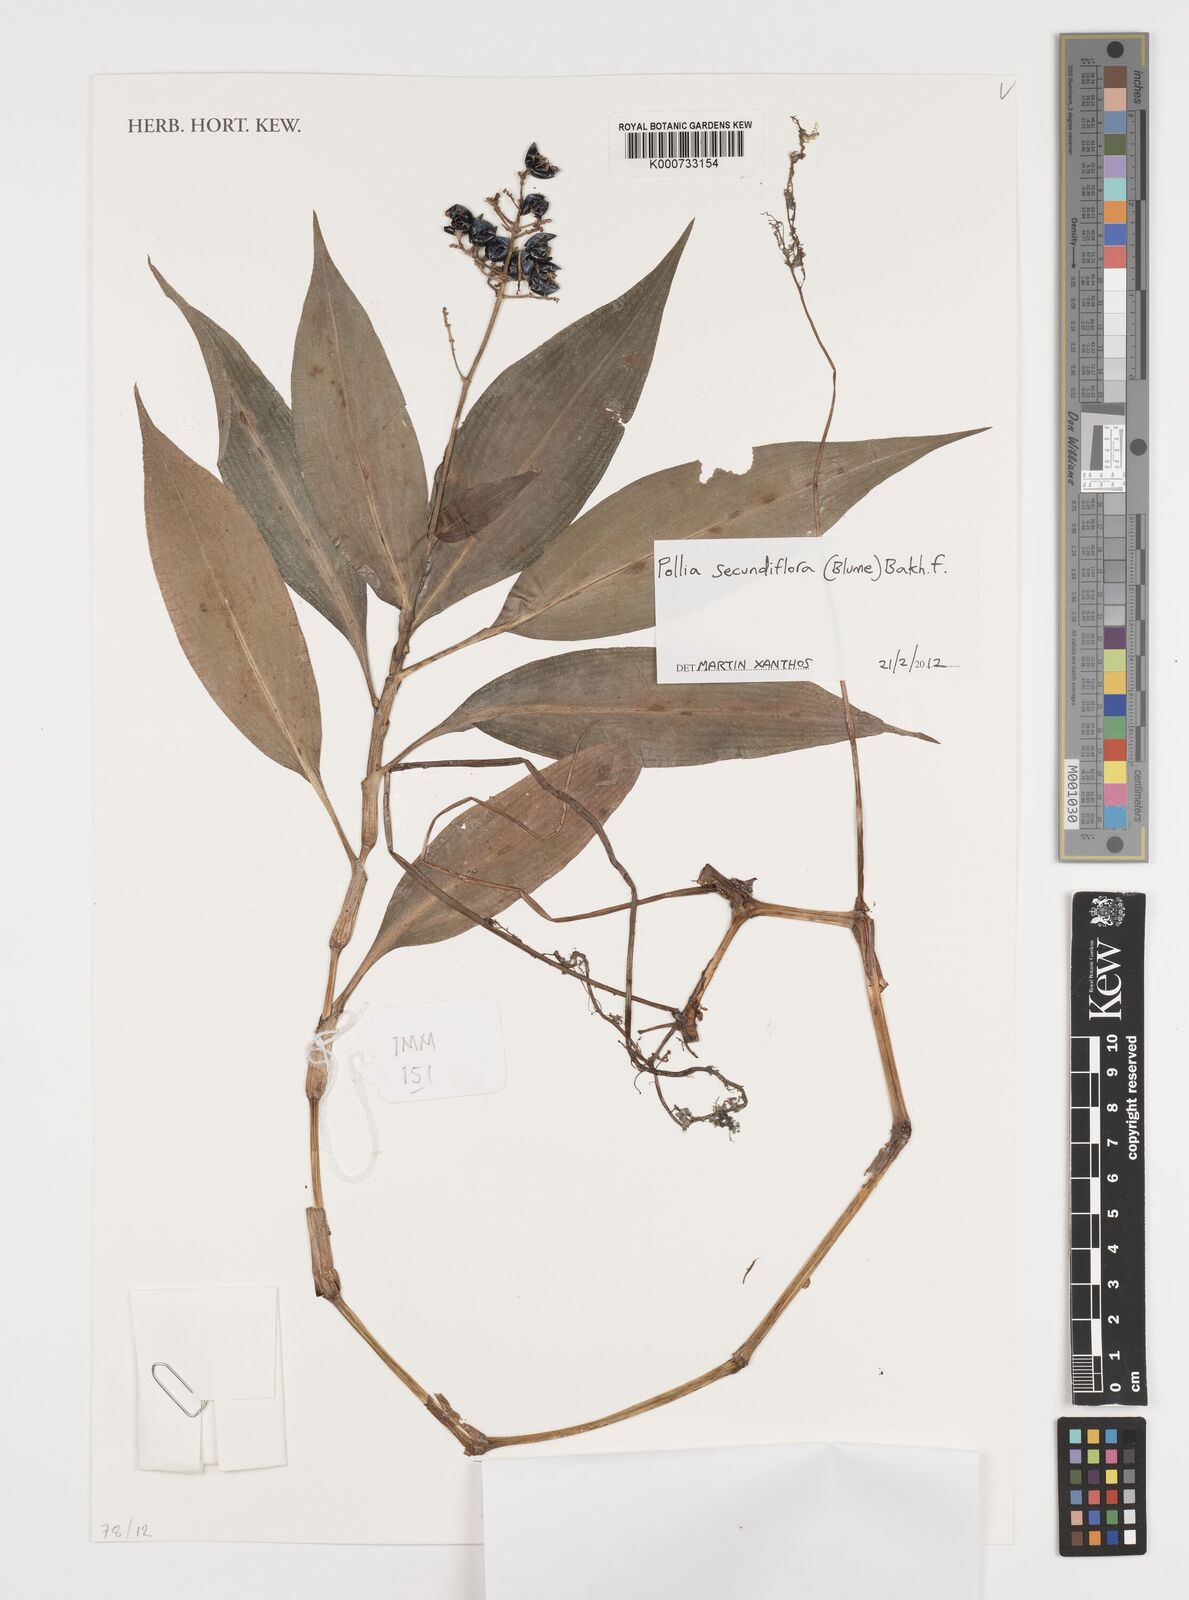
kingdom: Plantae
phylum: Tracheophyta
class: Liliopsida
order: Commelinales
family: Commelinaceae
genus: Pollia
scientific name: Pollia secundiflora
